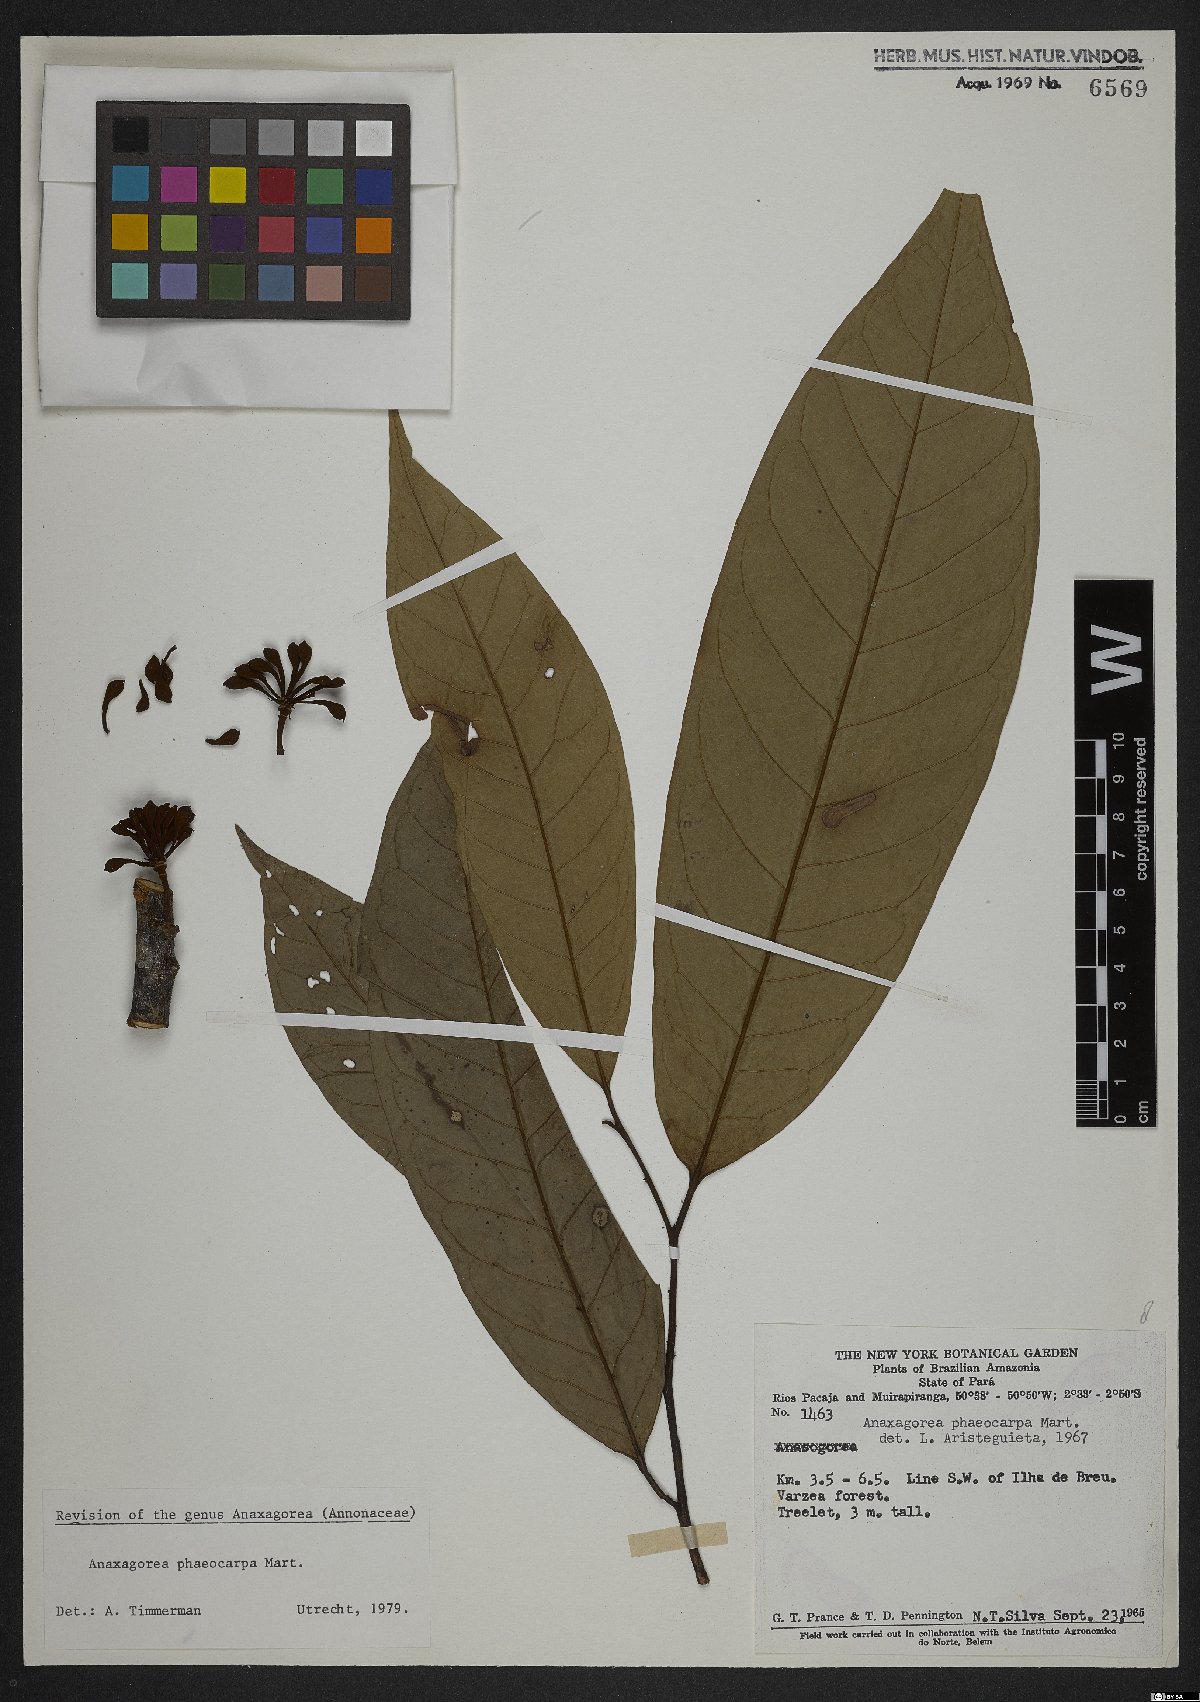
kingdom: Plantae
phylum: Tracheophyta
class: Magnoliopsida
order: Magnoliales
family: Annonaceae
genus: Anaxagorea
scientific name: Anaxagorea phaeocarpa
